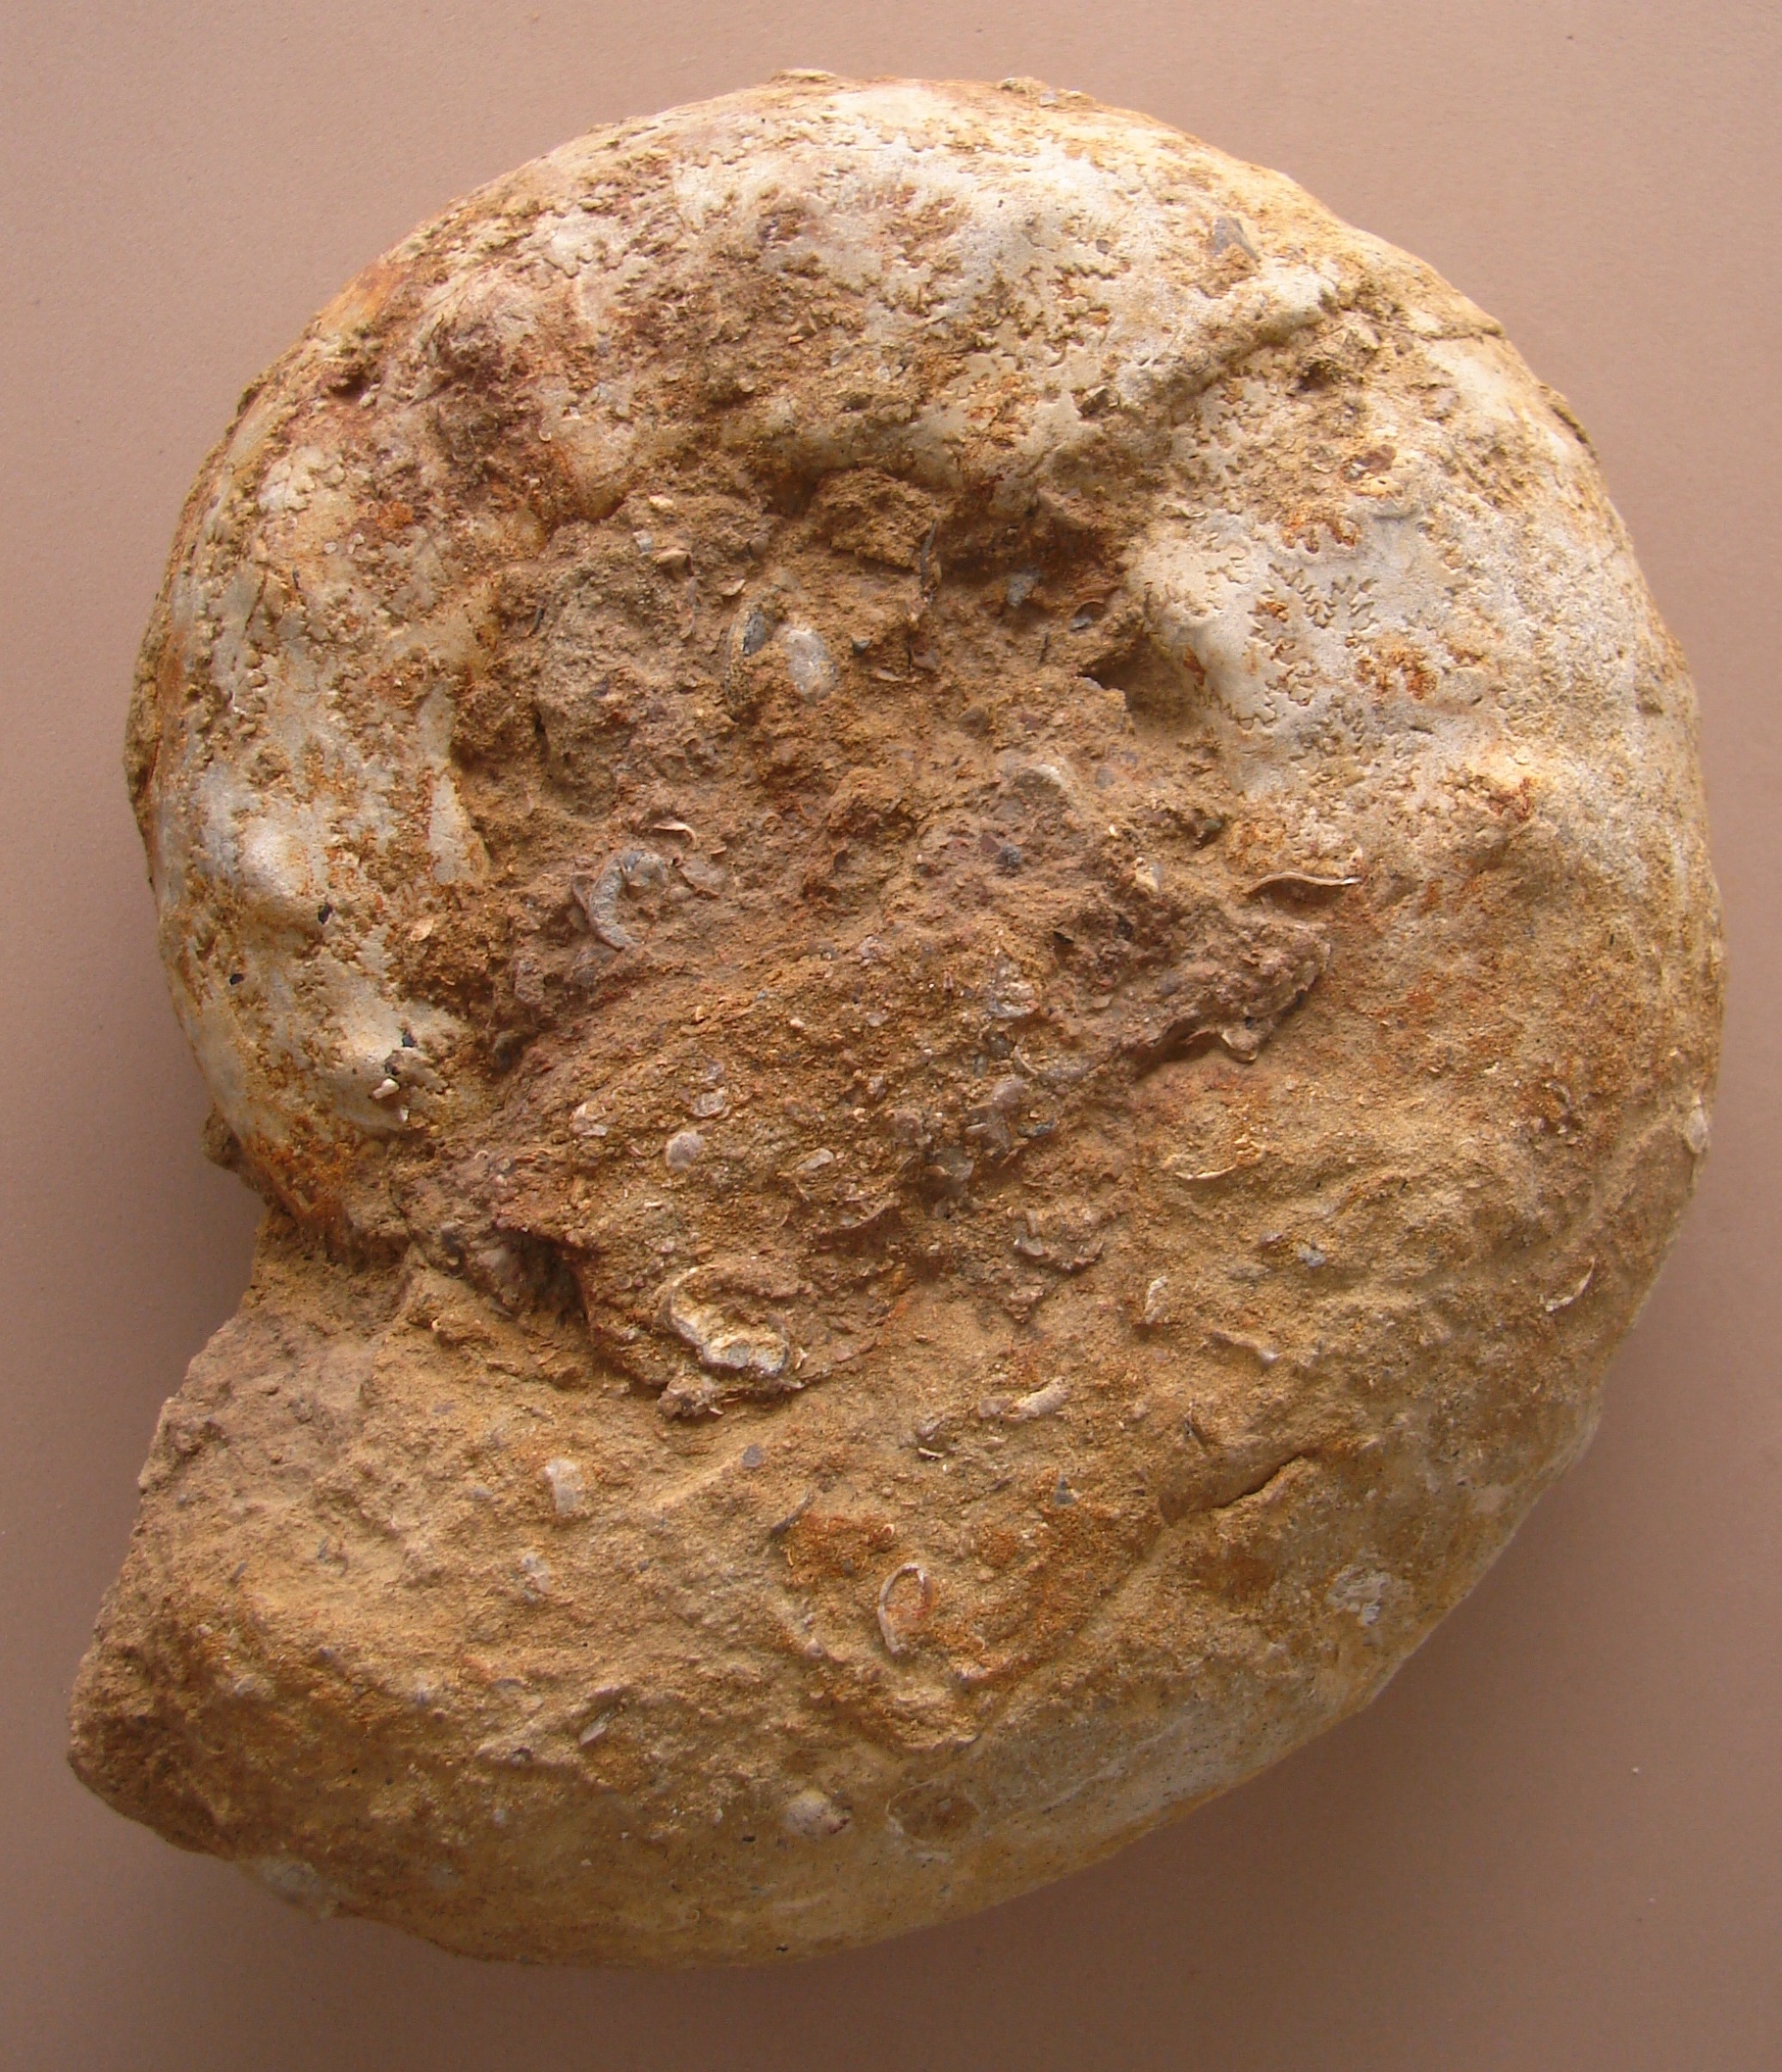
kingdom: Animalia
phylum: Mollusca
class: Cephalopoda
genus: Ammonites
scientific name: Ammonites
